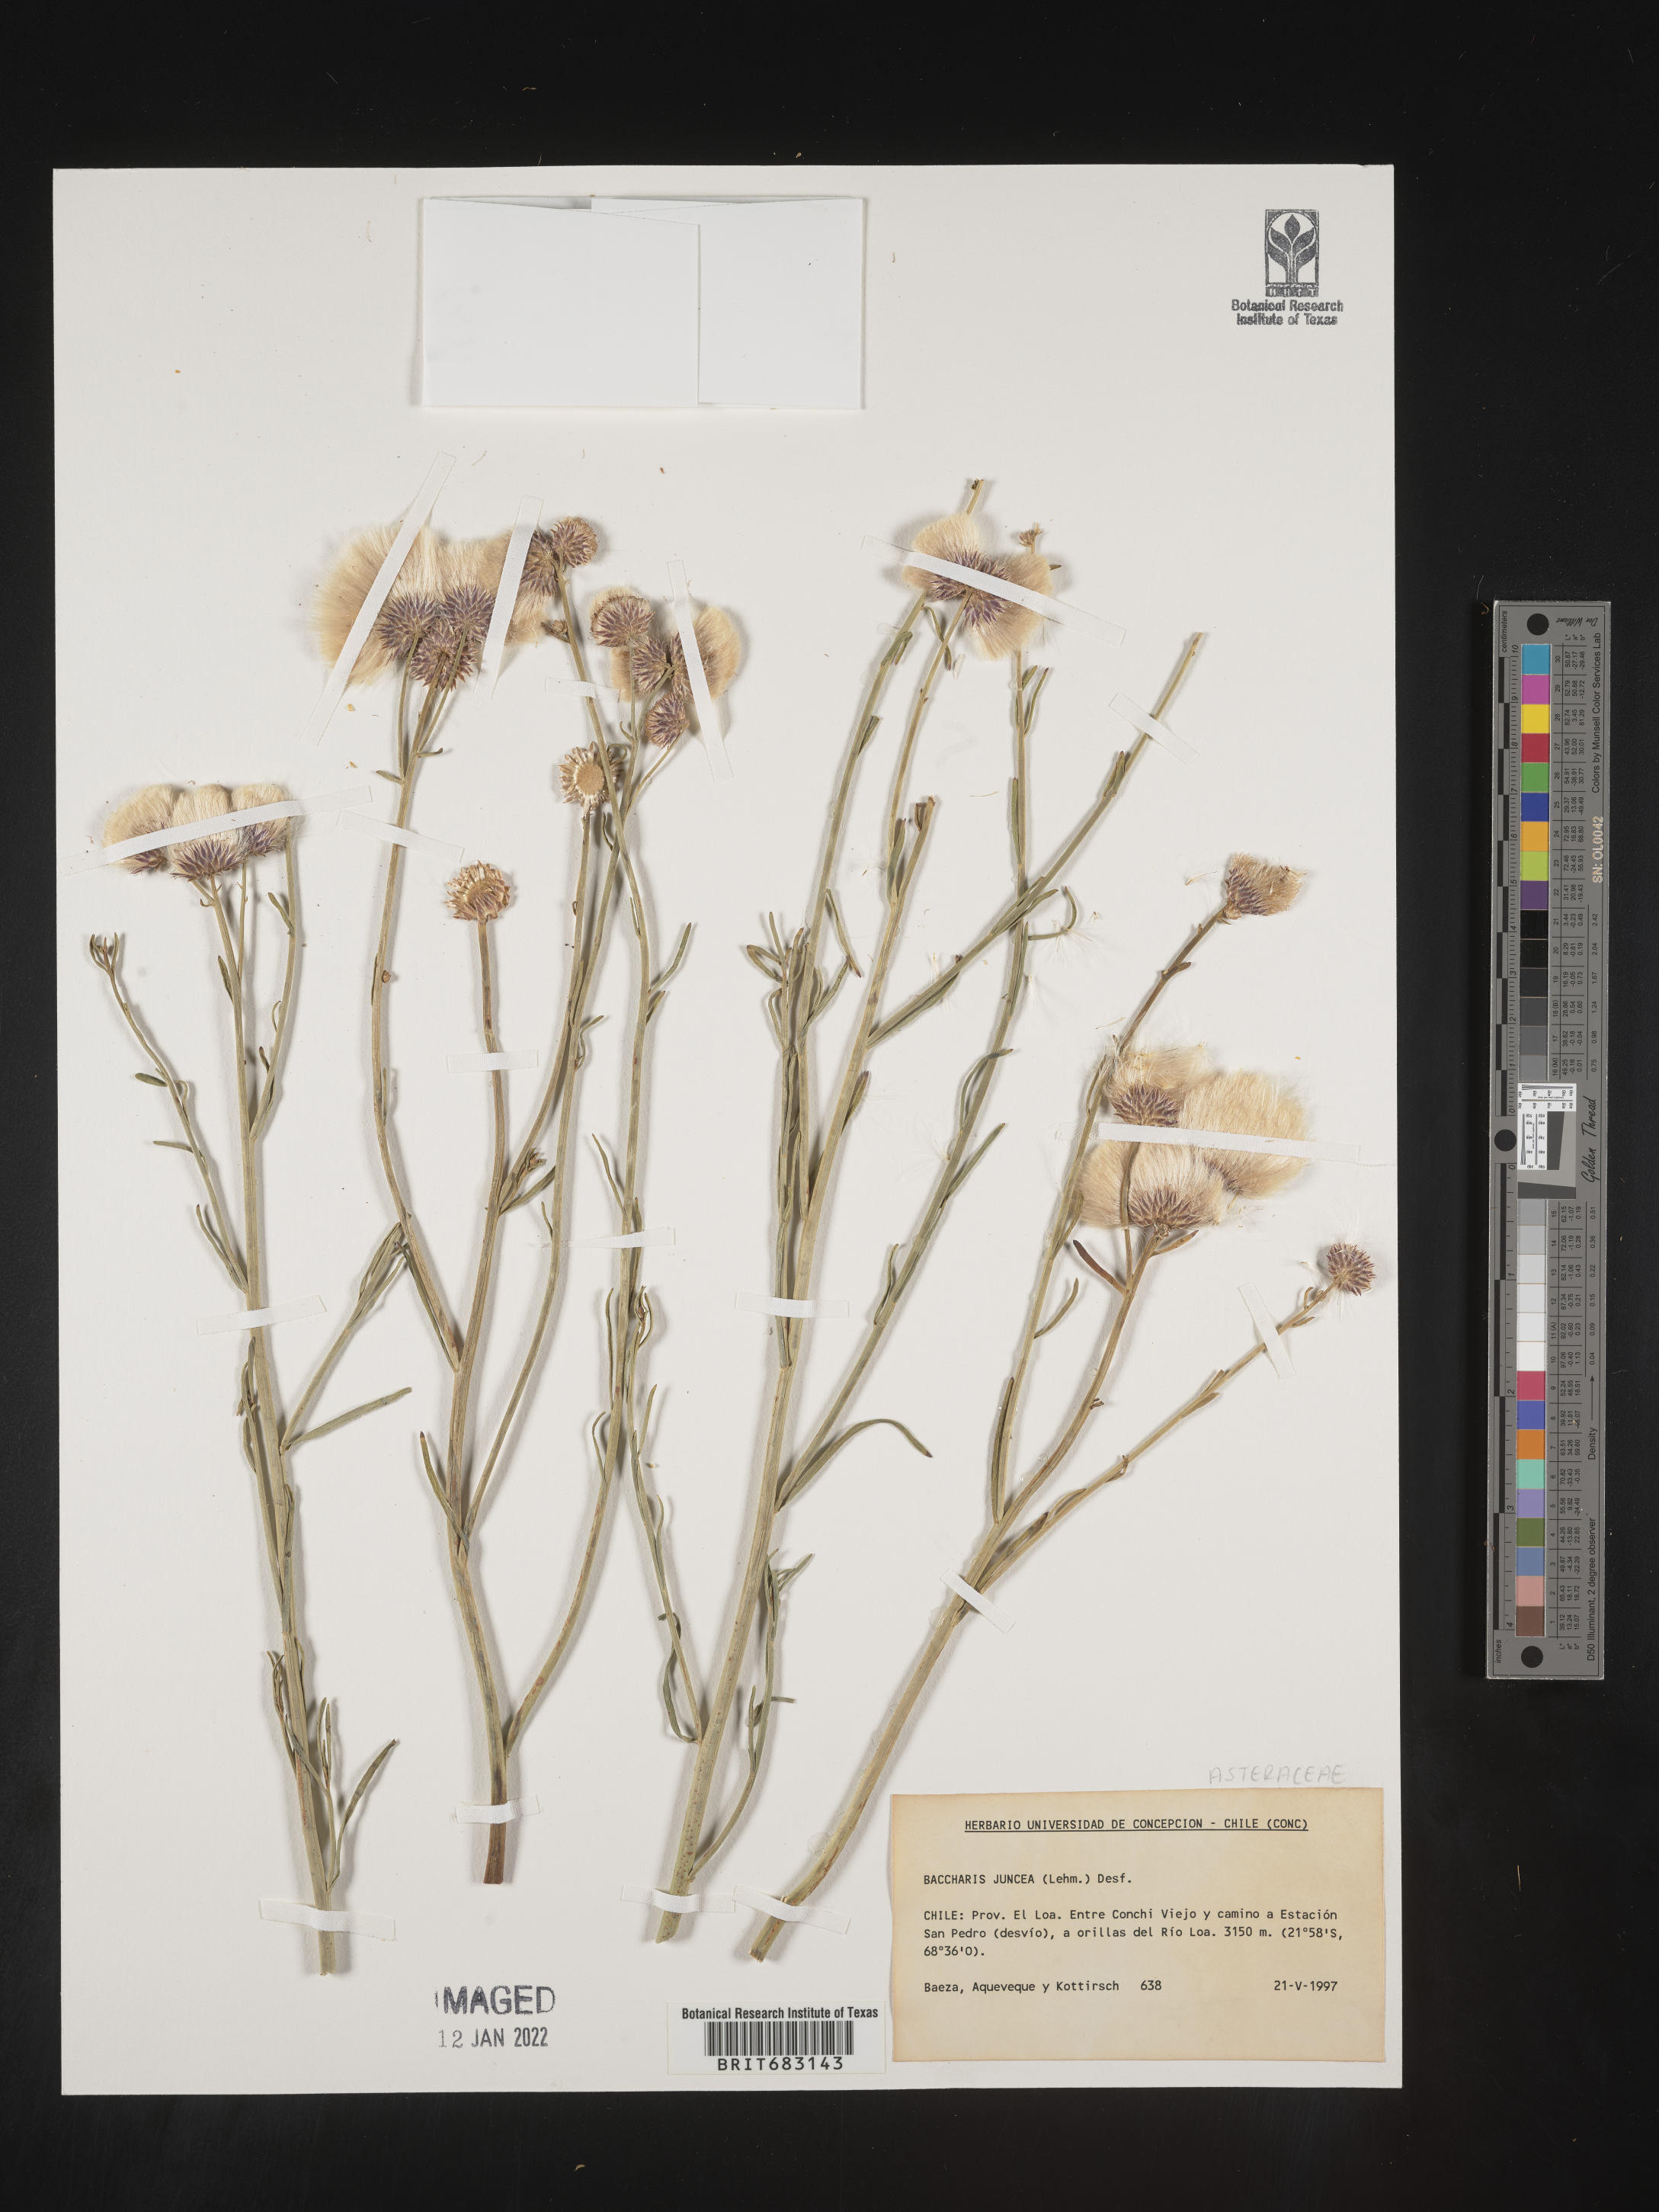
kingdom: Plantae
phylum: Tracheophyta
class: Magnoliopsida
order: Asterales
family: Asteraceae
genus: Baccharis
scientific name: Baccharis
